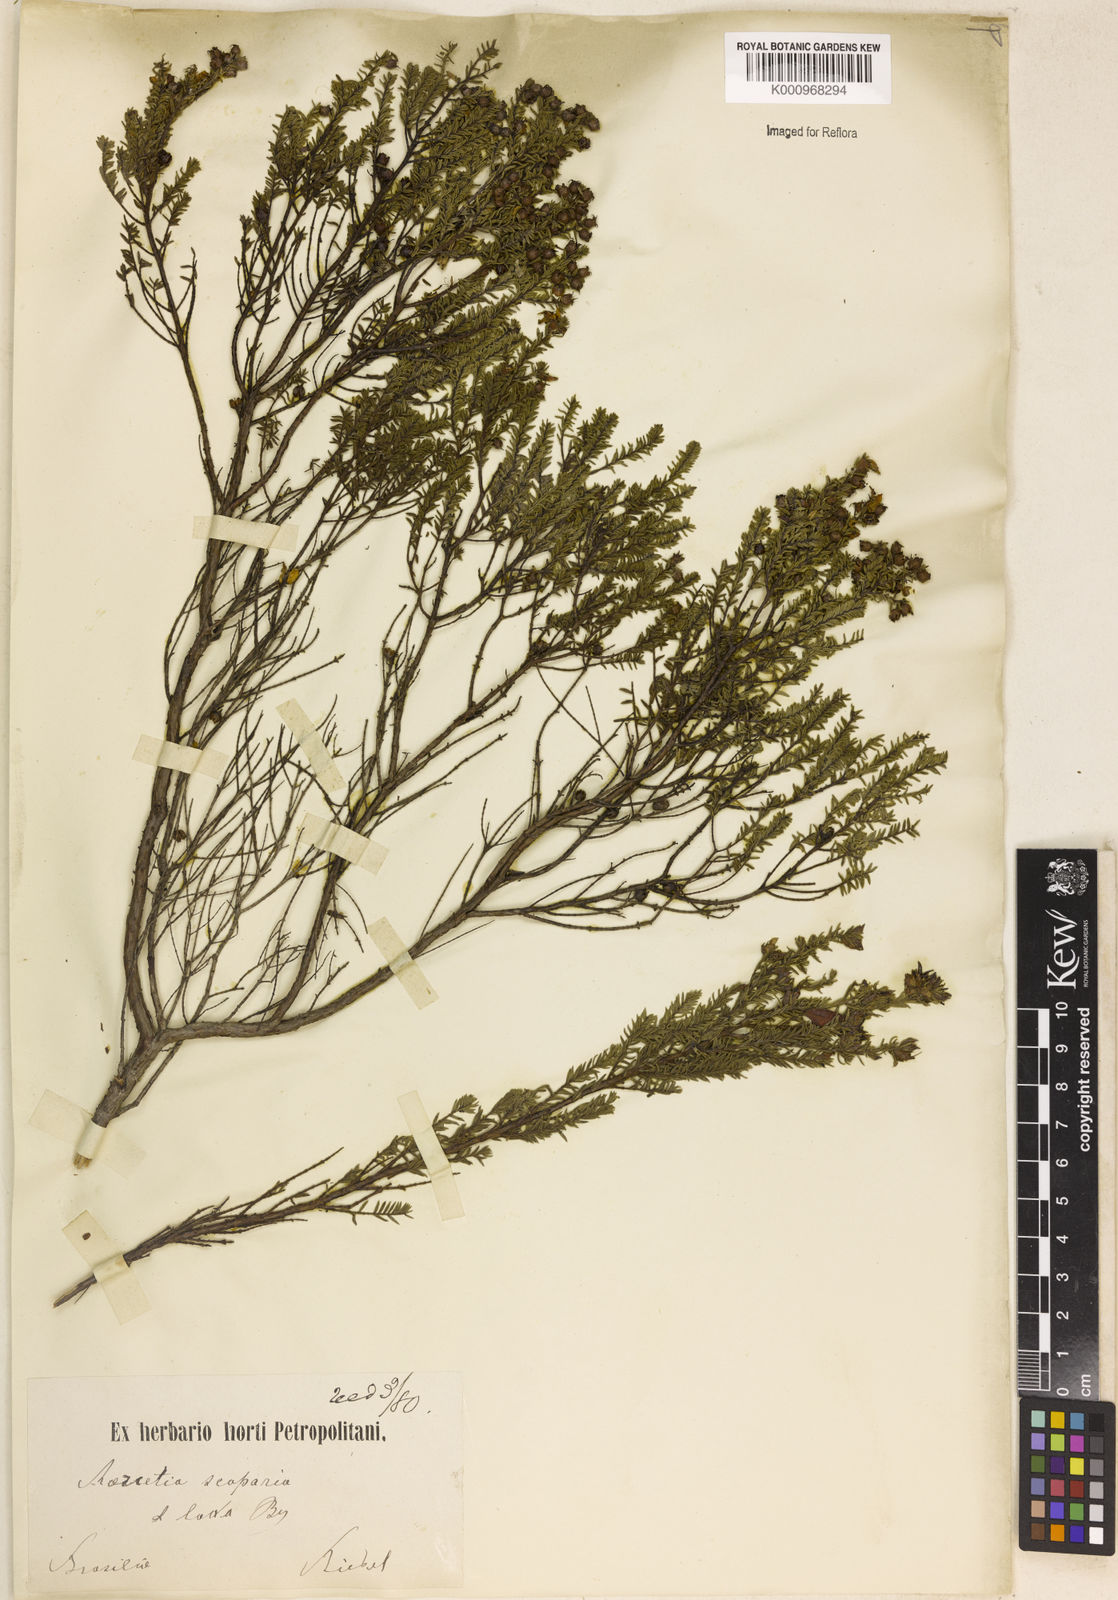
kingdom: Plantae
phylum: Tracheophyta
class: Magnoliopsida
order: Myrtales
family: Melastomataceae
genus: Marcetia
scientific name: Marcetia taxifolia
